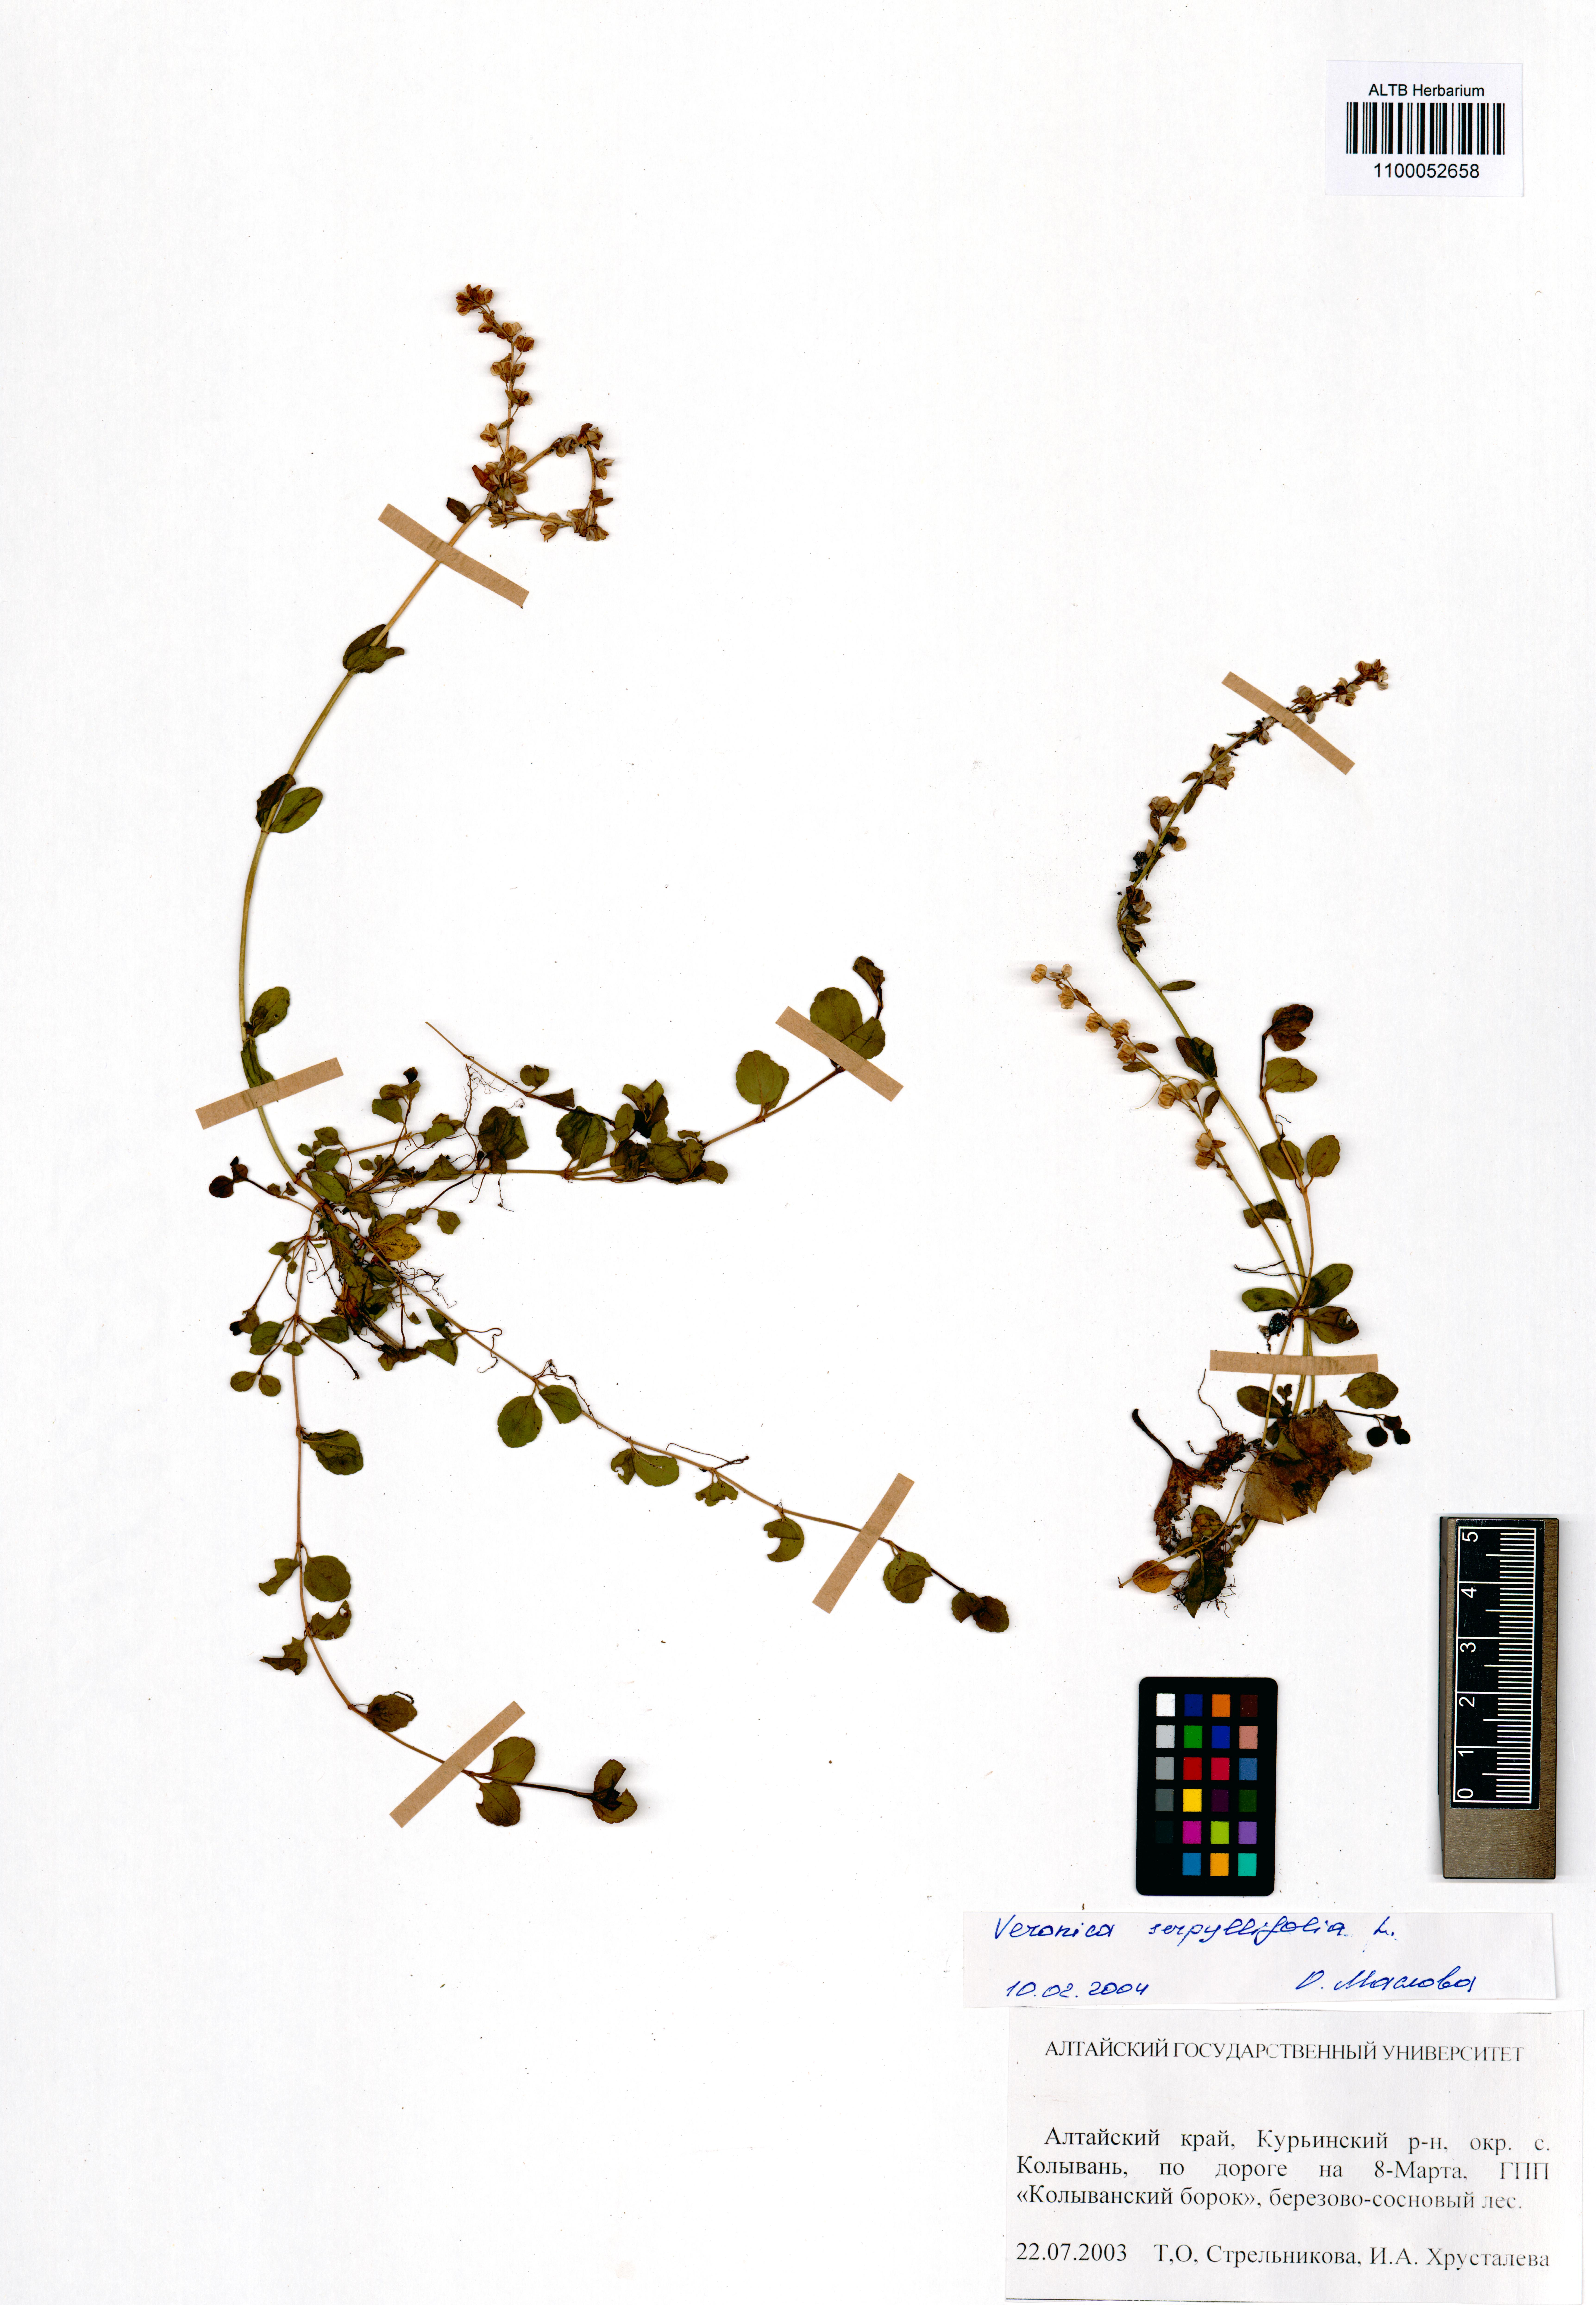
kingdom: Plantae
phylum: Tracheophyta
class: Magnoliopsida
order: Lamiales
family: Plantaginaceae
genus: Veronica
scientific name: Veronica serpyllifolia
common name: Thyme-leaved speedwell
